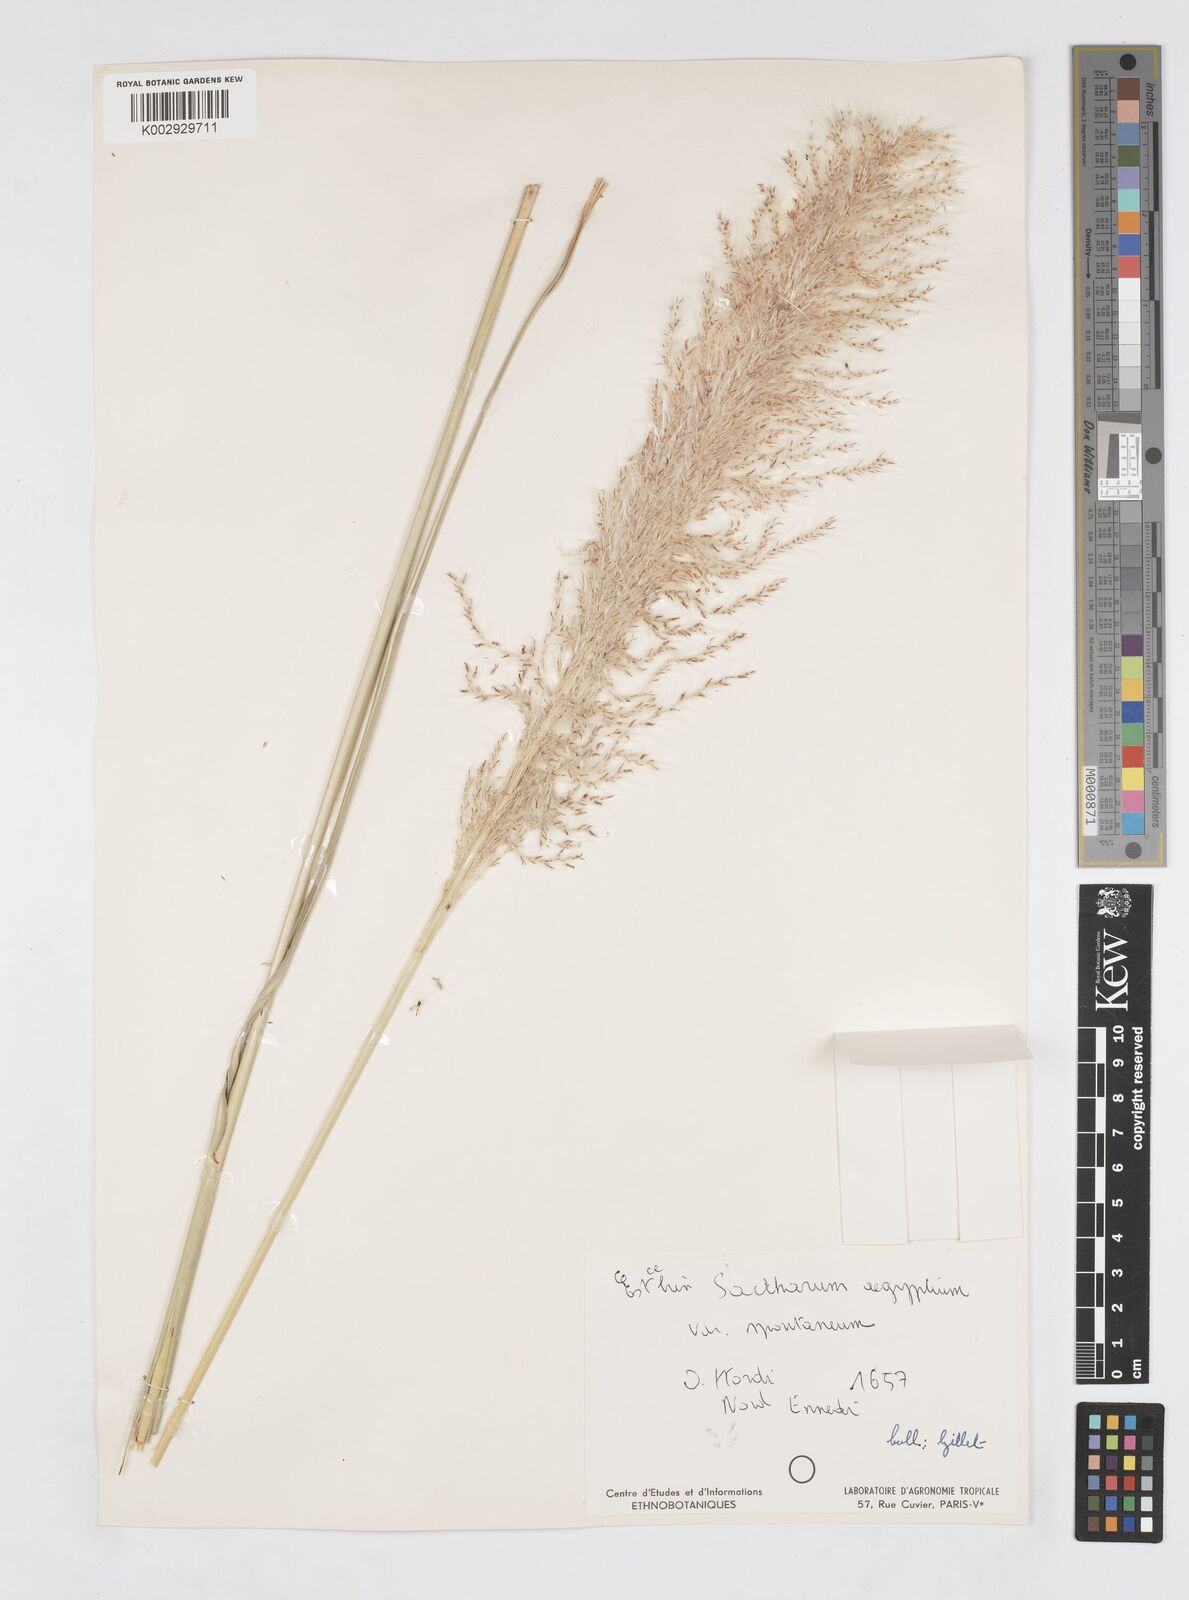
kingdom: Plantae
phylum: Tracheophyta
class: Liliopsida
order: Poales
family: Poaceae
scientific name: Poaceae
